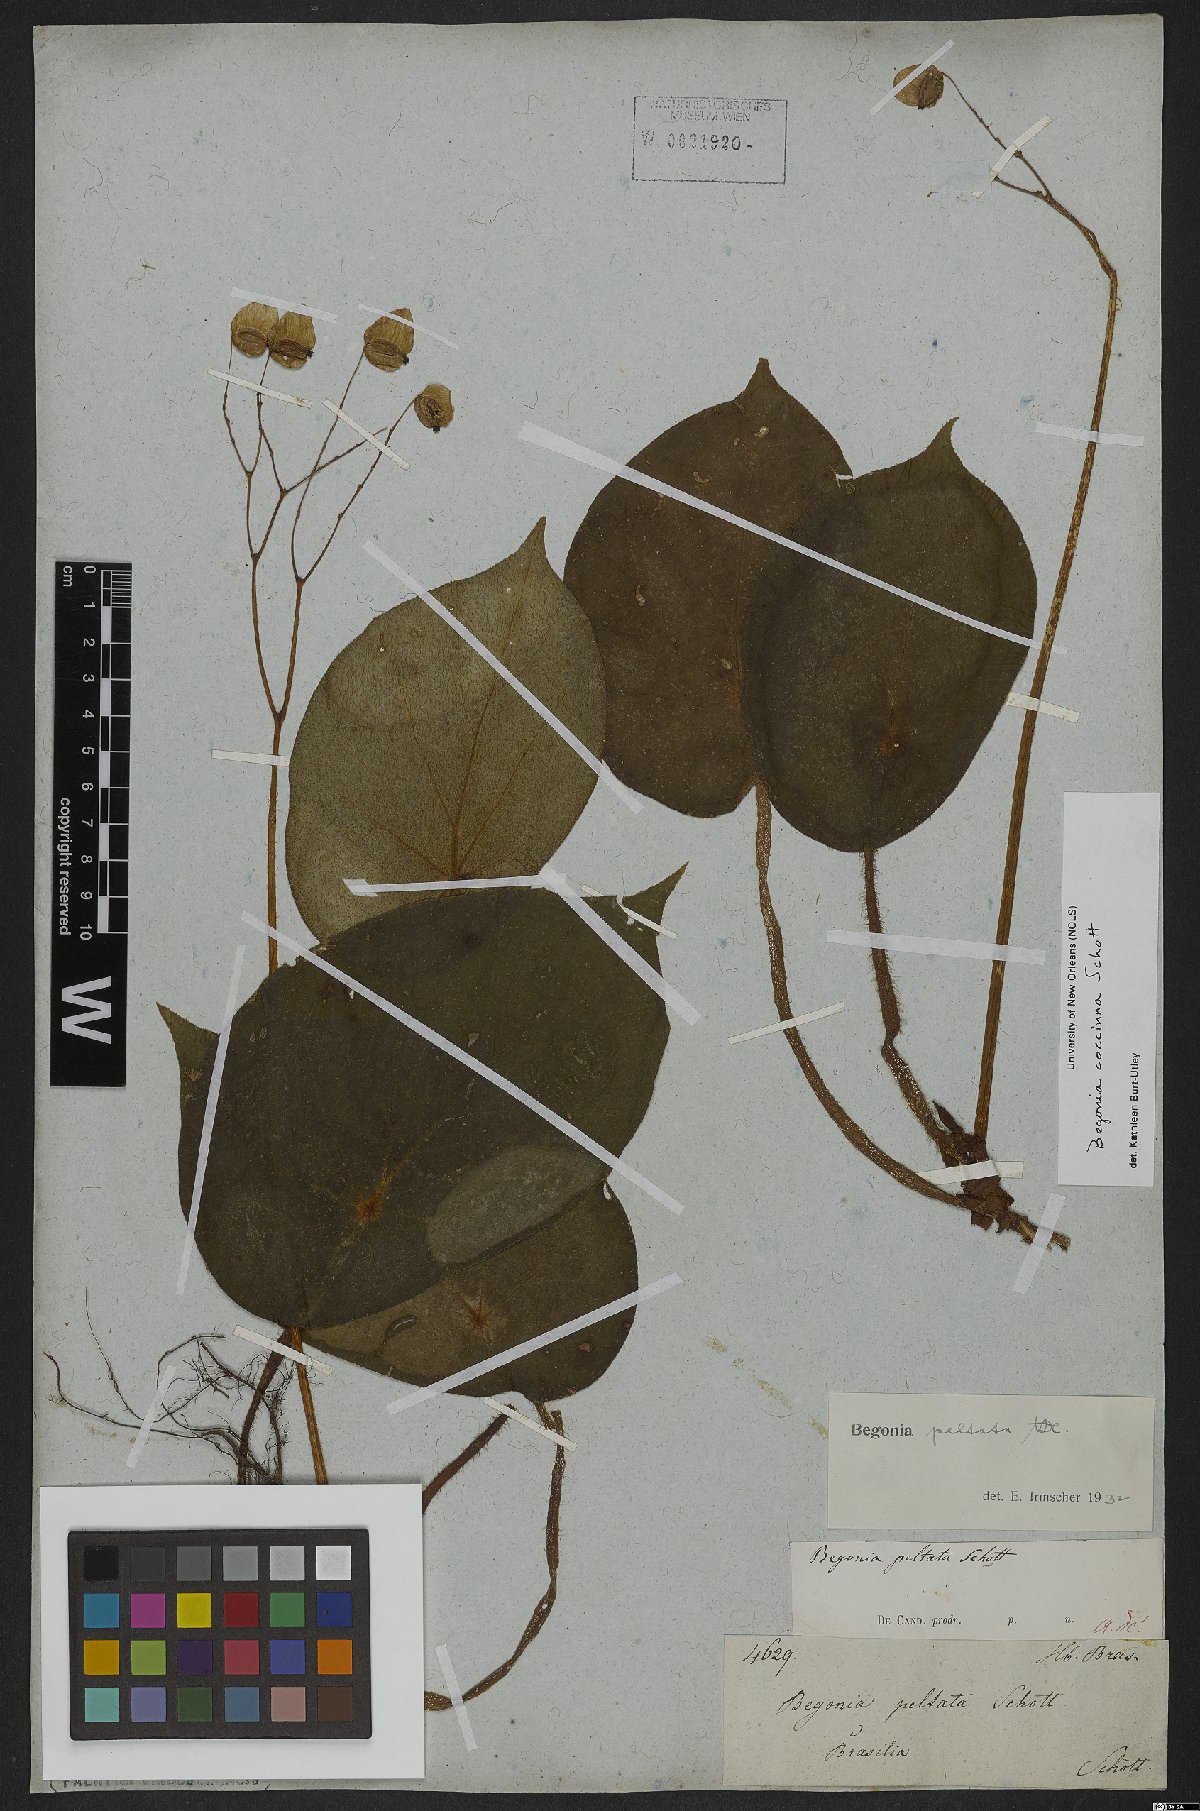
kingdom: Plantae
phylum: Tracheophyta
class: Magnoliopsida
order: Cucurbitales
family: Begoniaceae
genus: Begonia
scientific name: Begonia coccinea
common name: Angel-wing begonia
